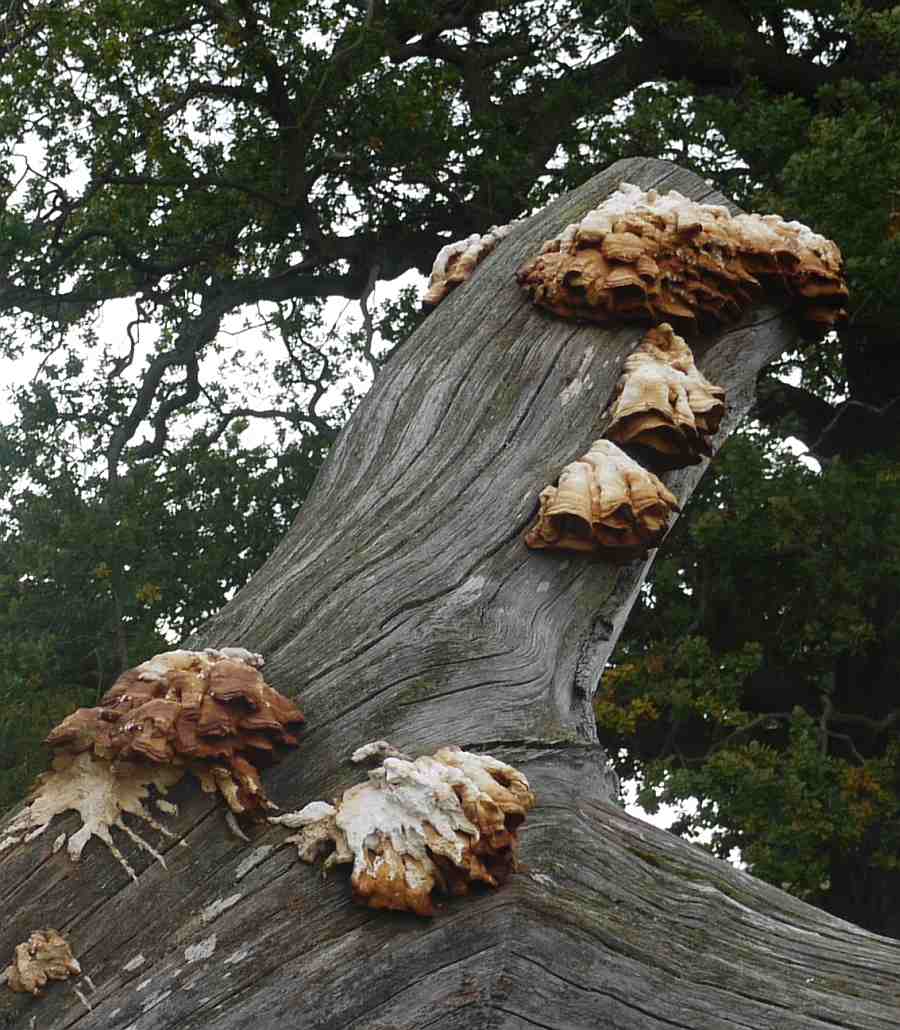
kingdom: Fungi
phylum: Basidiomycota
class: Agaricomycetes
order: Polyporales
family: Laetiporaceae
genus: Laetiporus
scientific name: Laetiporus sulphureus
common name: svovlporesvamp
